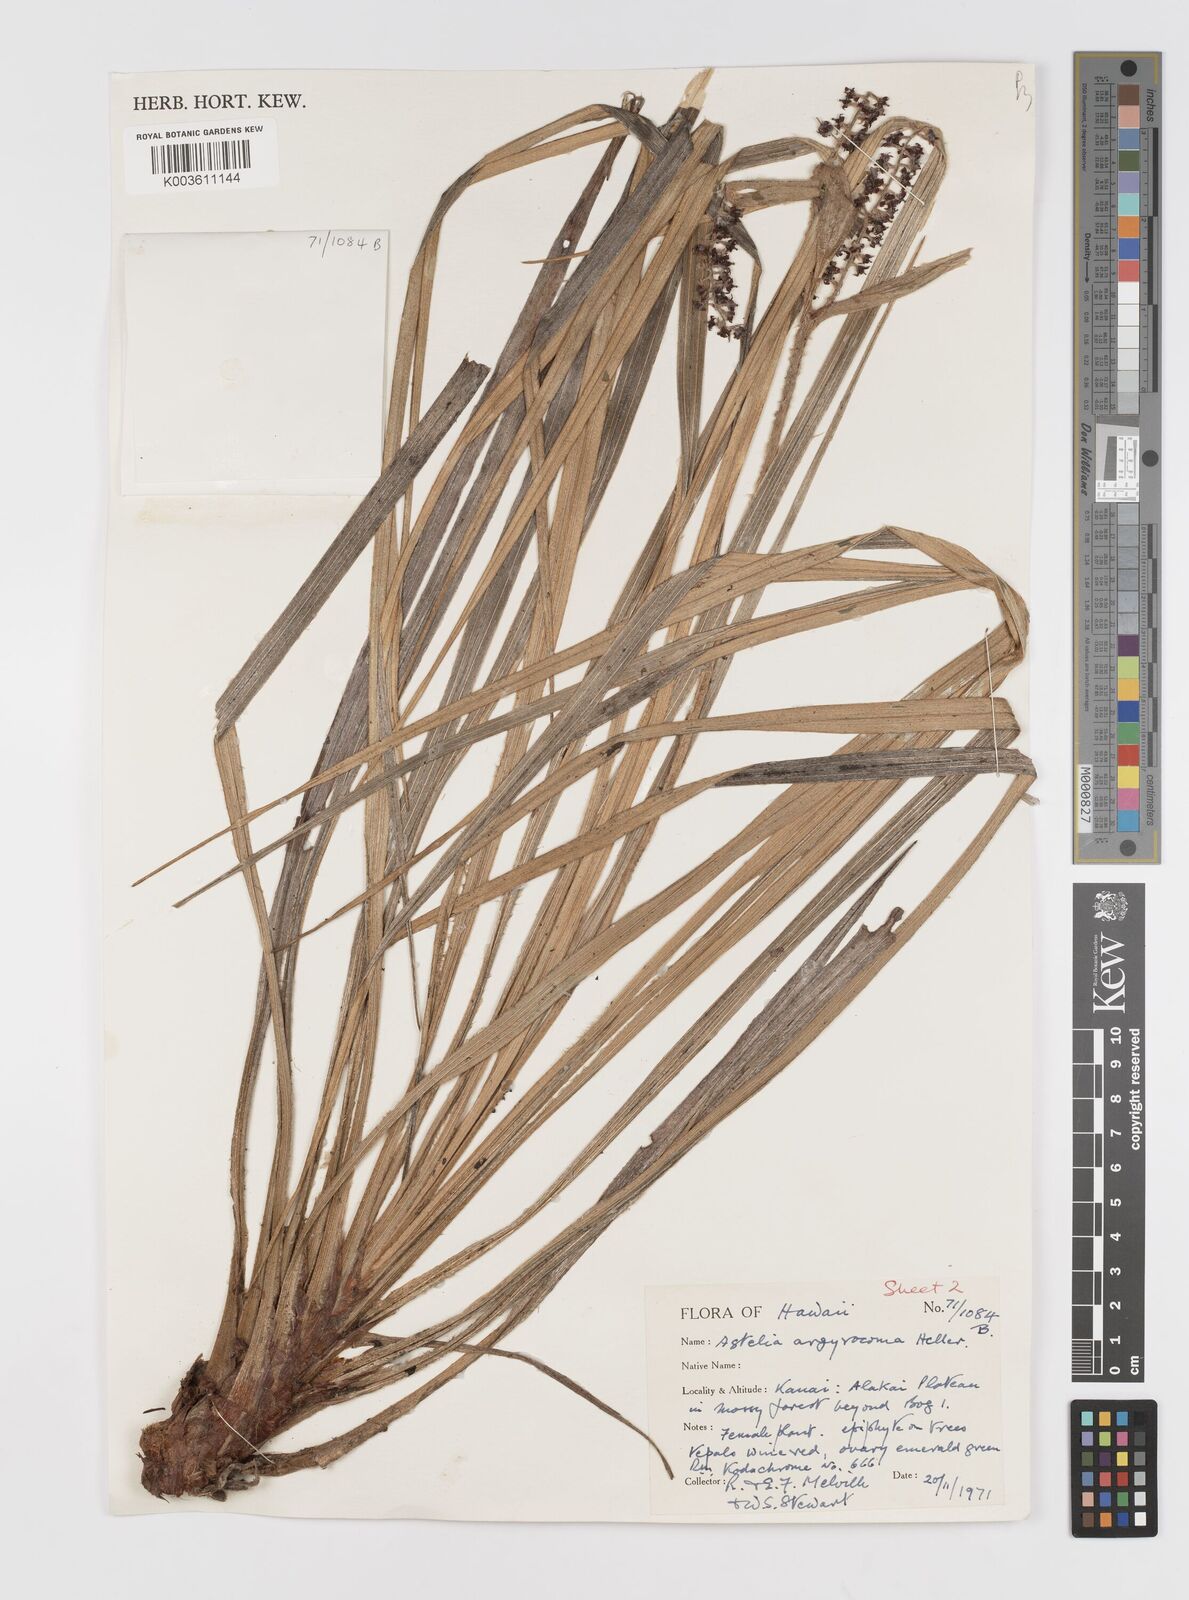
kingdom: Plantae
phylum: Tracheophyta
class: Liliopsida
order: Asparagales
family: Asteliaceae
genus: Astelia
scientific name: Astelia argyrocoma
